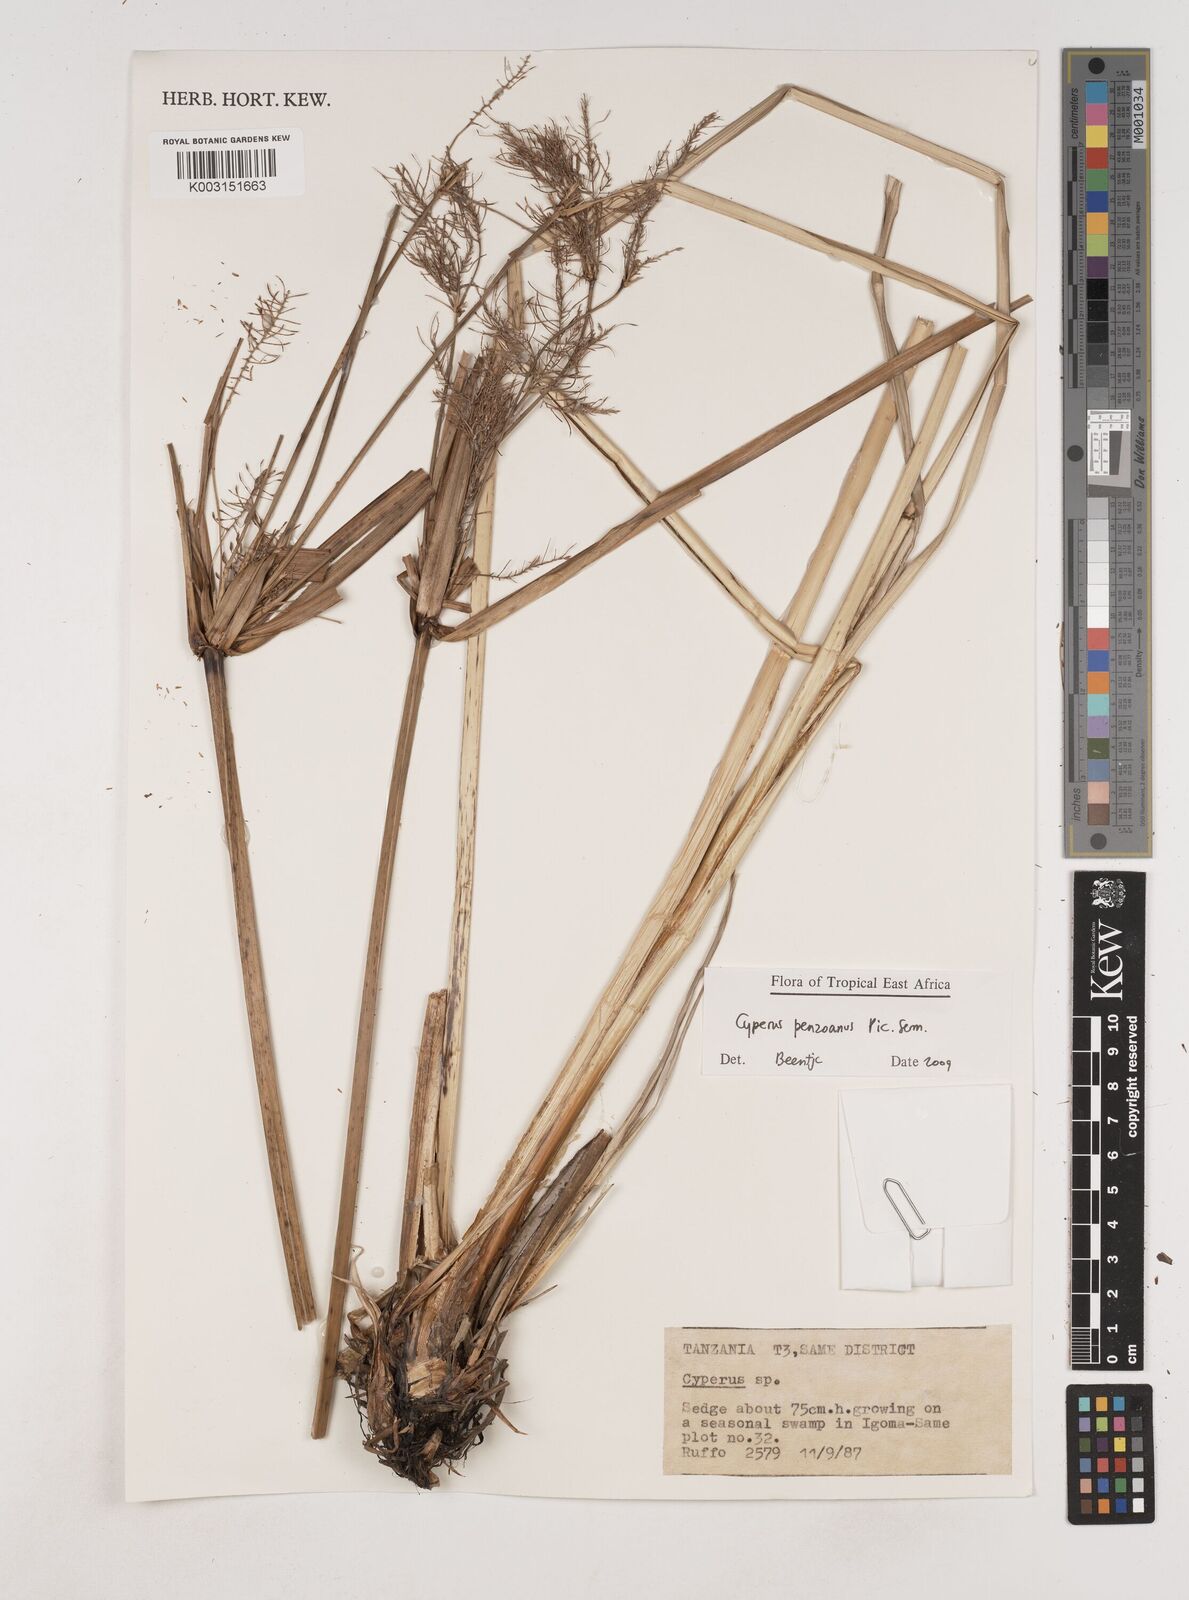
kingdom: Plantae
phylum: Tracheophyta
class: Liliopsida
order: Poales
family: Cyperaceae
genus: Cyperus
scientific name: Cyperus penzoanus
